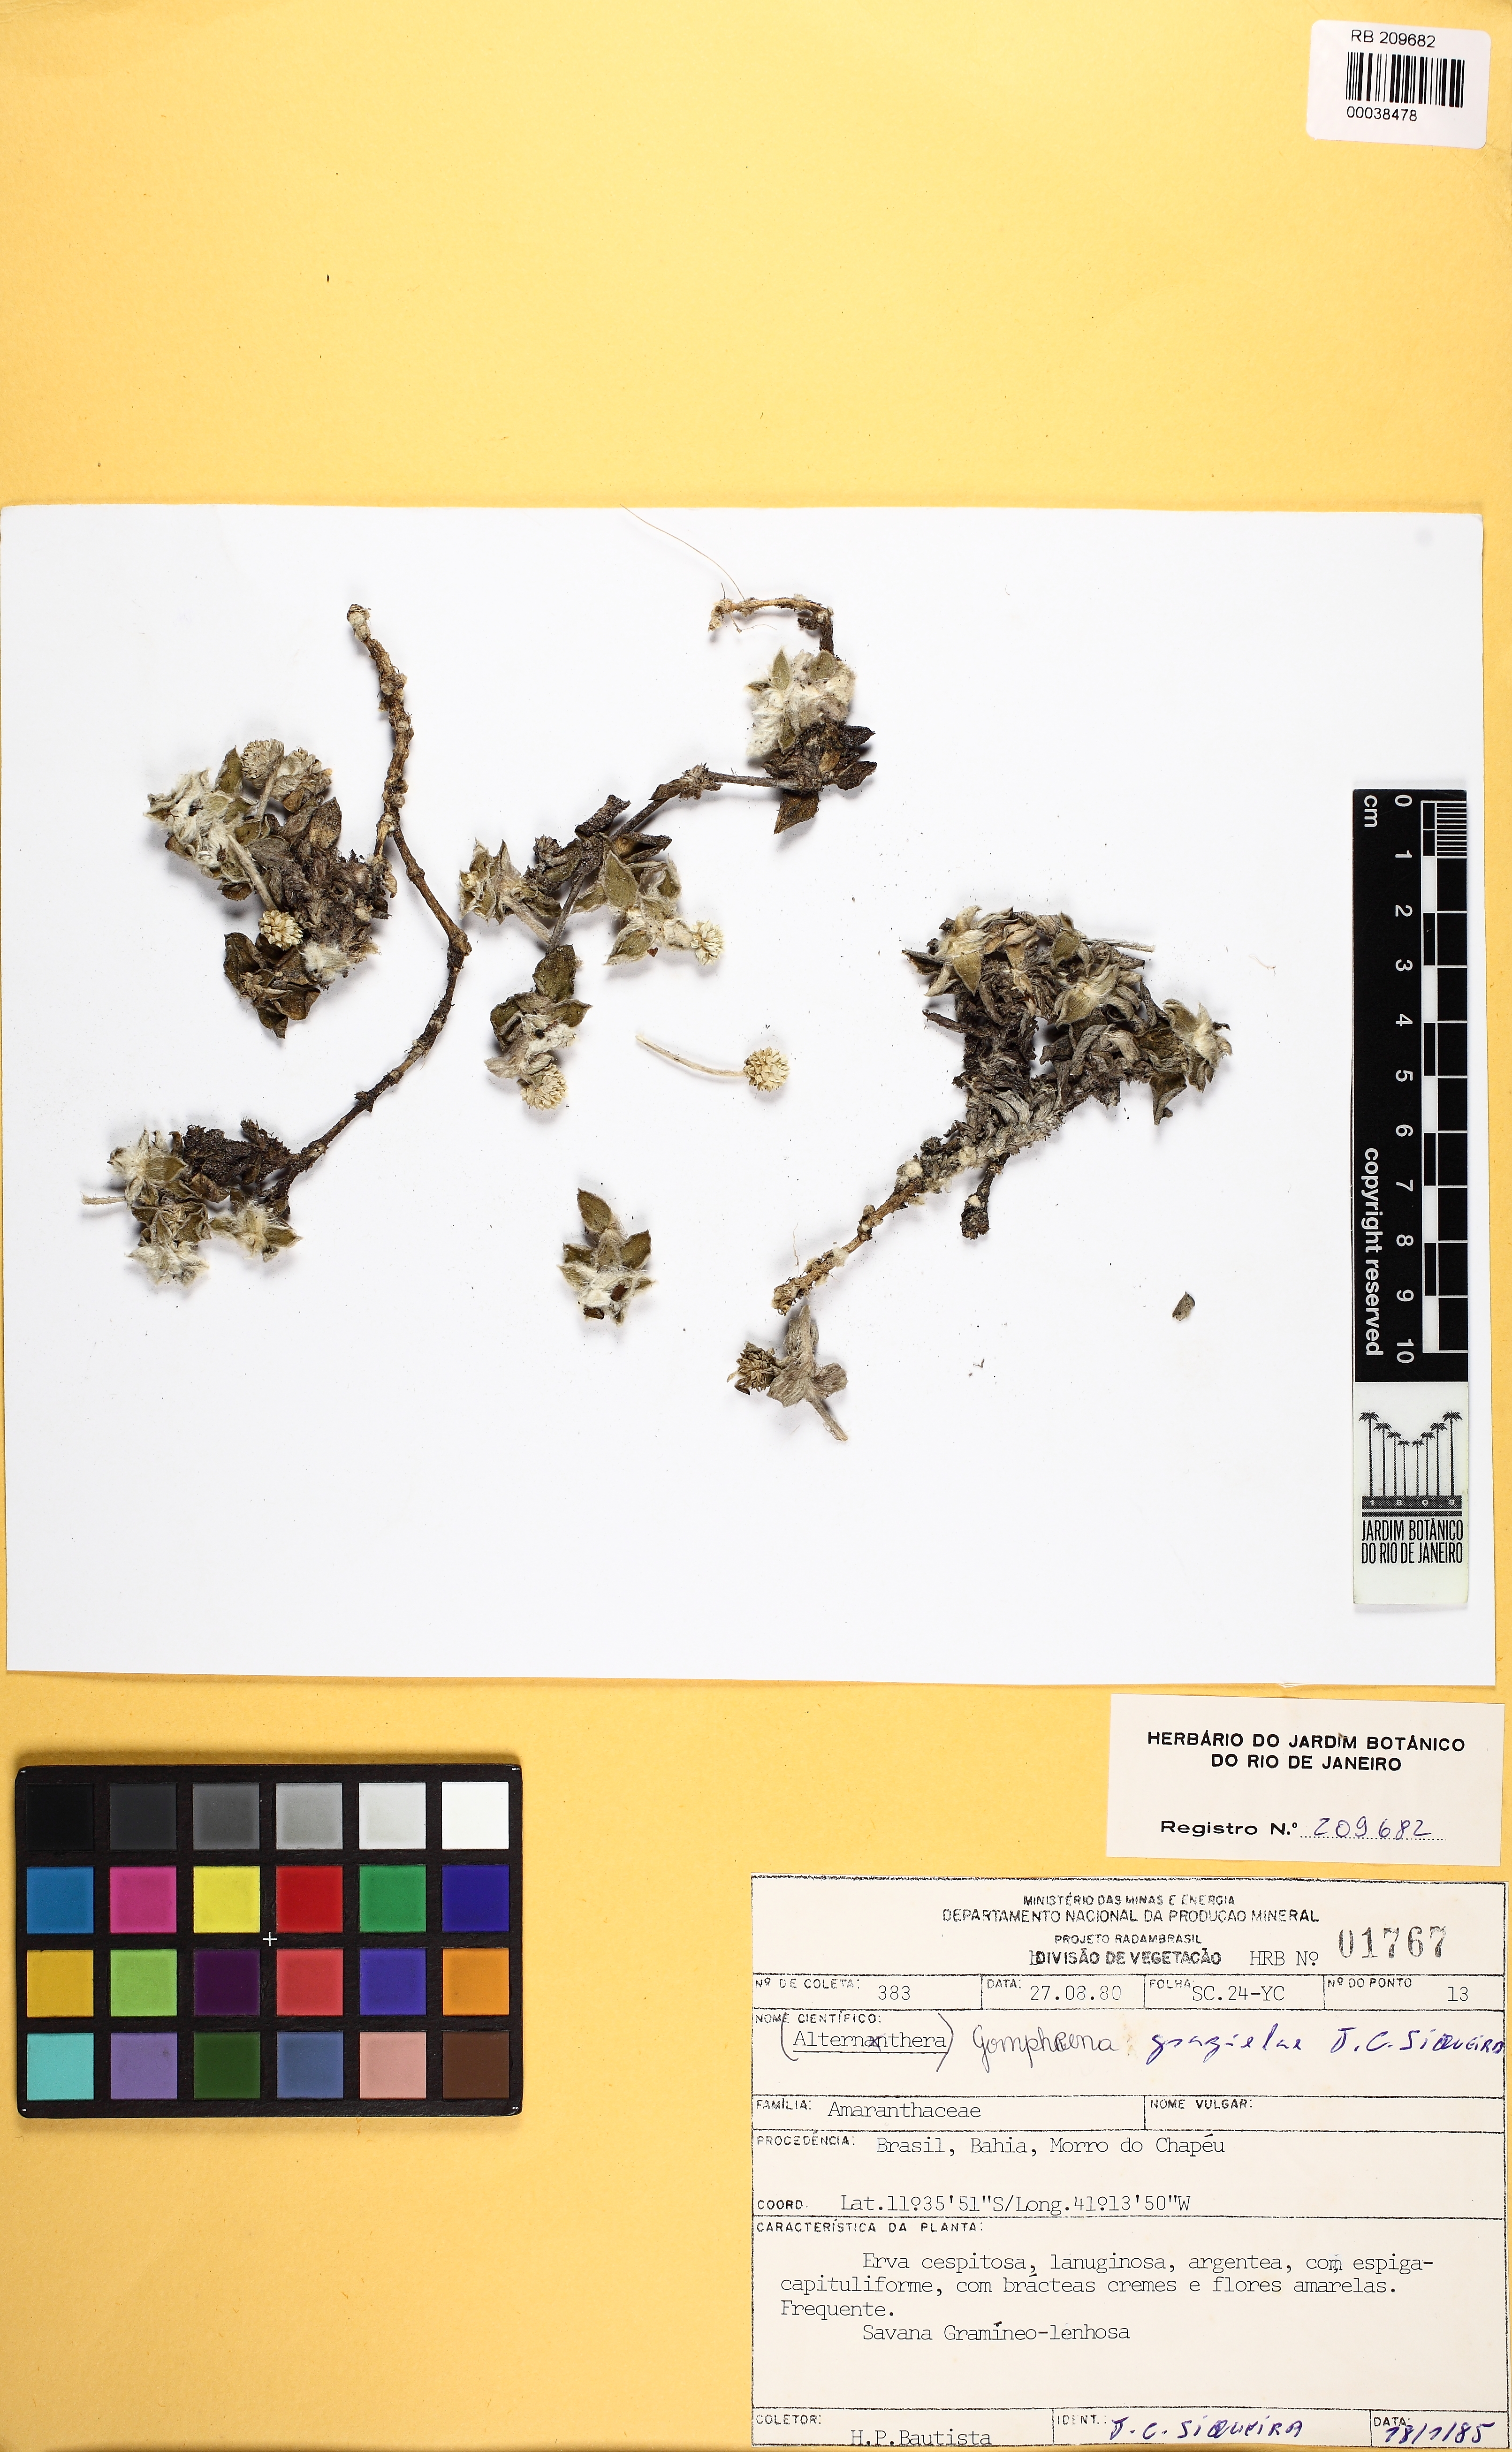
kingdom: Plantae
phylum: Tracheophyta
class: Magnoliopsida
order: Caryophyllales
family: Amaranthaceae
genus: Gomphrena
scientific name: Gomphrena gardneri
